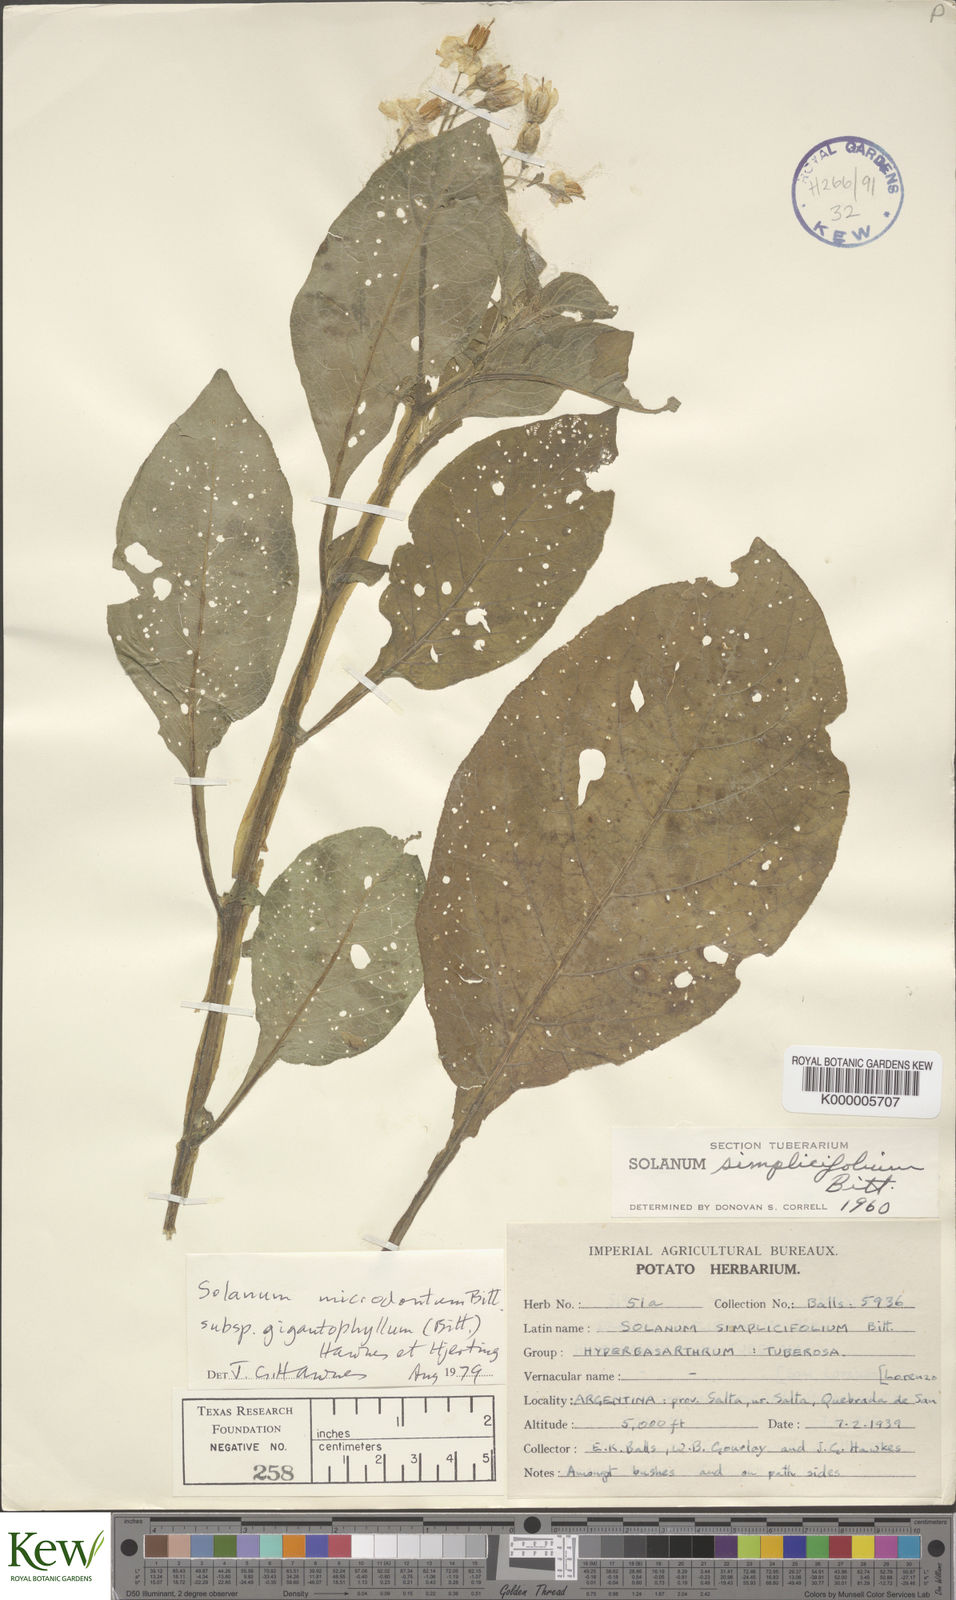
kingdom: Plantae
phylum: Tracheophyta
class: Magnoliopsida
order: Solanales
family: Solanaceae
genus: Solanum
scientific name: Solanum microdontum
